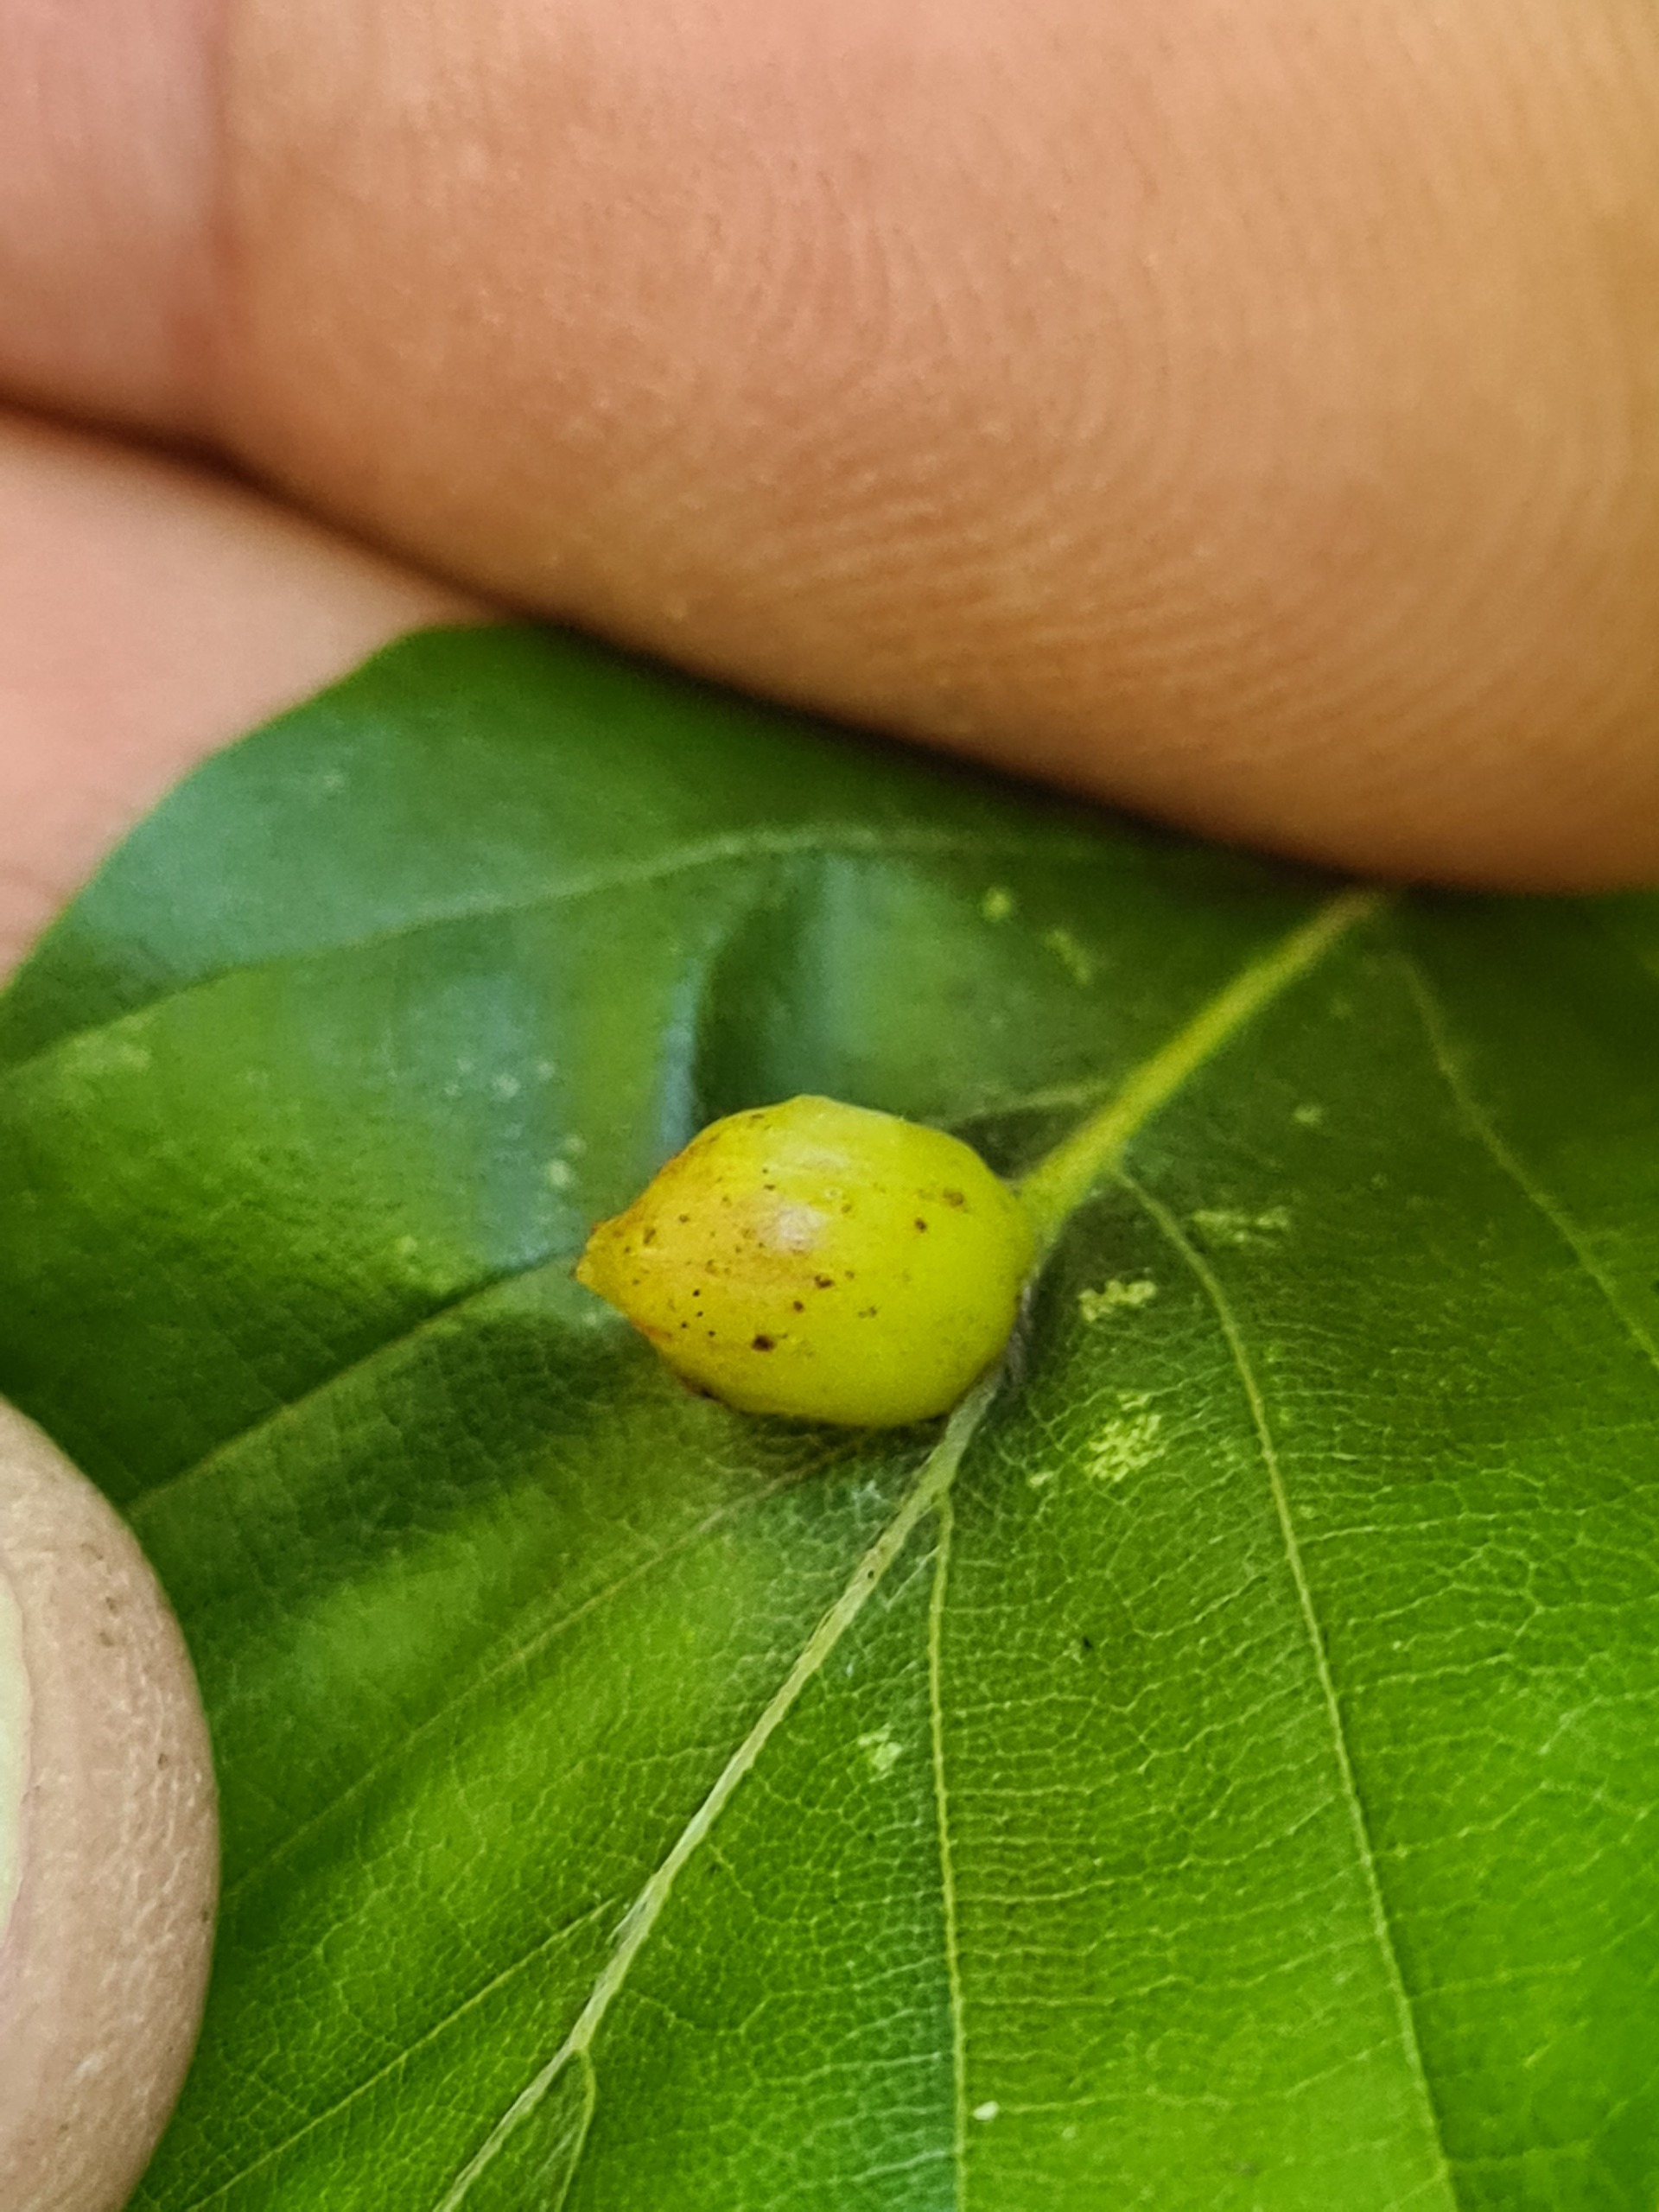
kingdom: Animalia
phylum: Arthropoda
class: Insecta
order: Diptera
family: Cecidomyiidae
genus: Mikiola
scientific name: Mikiola fagi
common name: Bøgegalmyg
